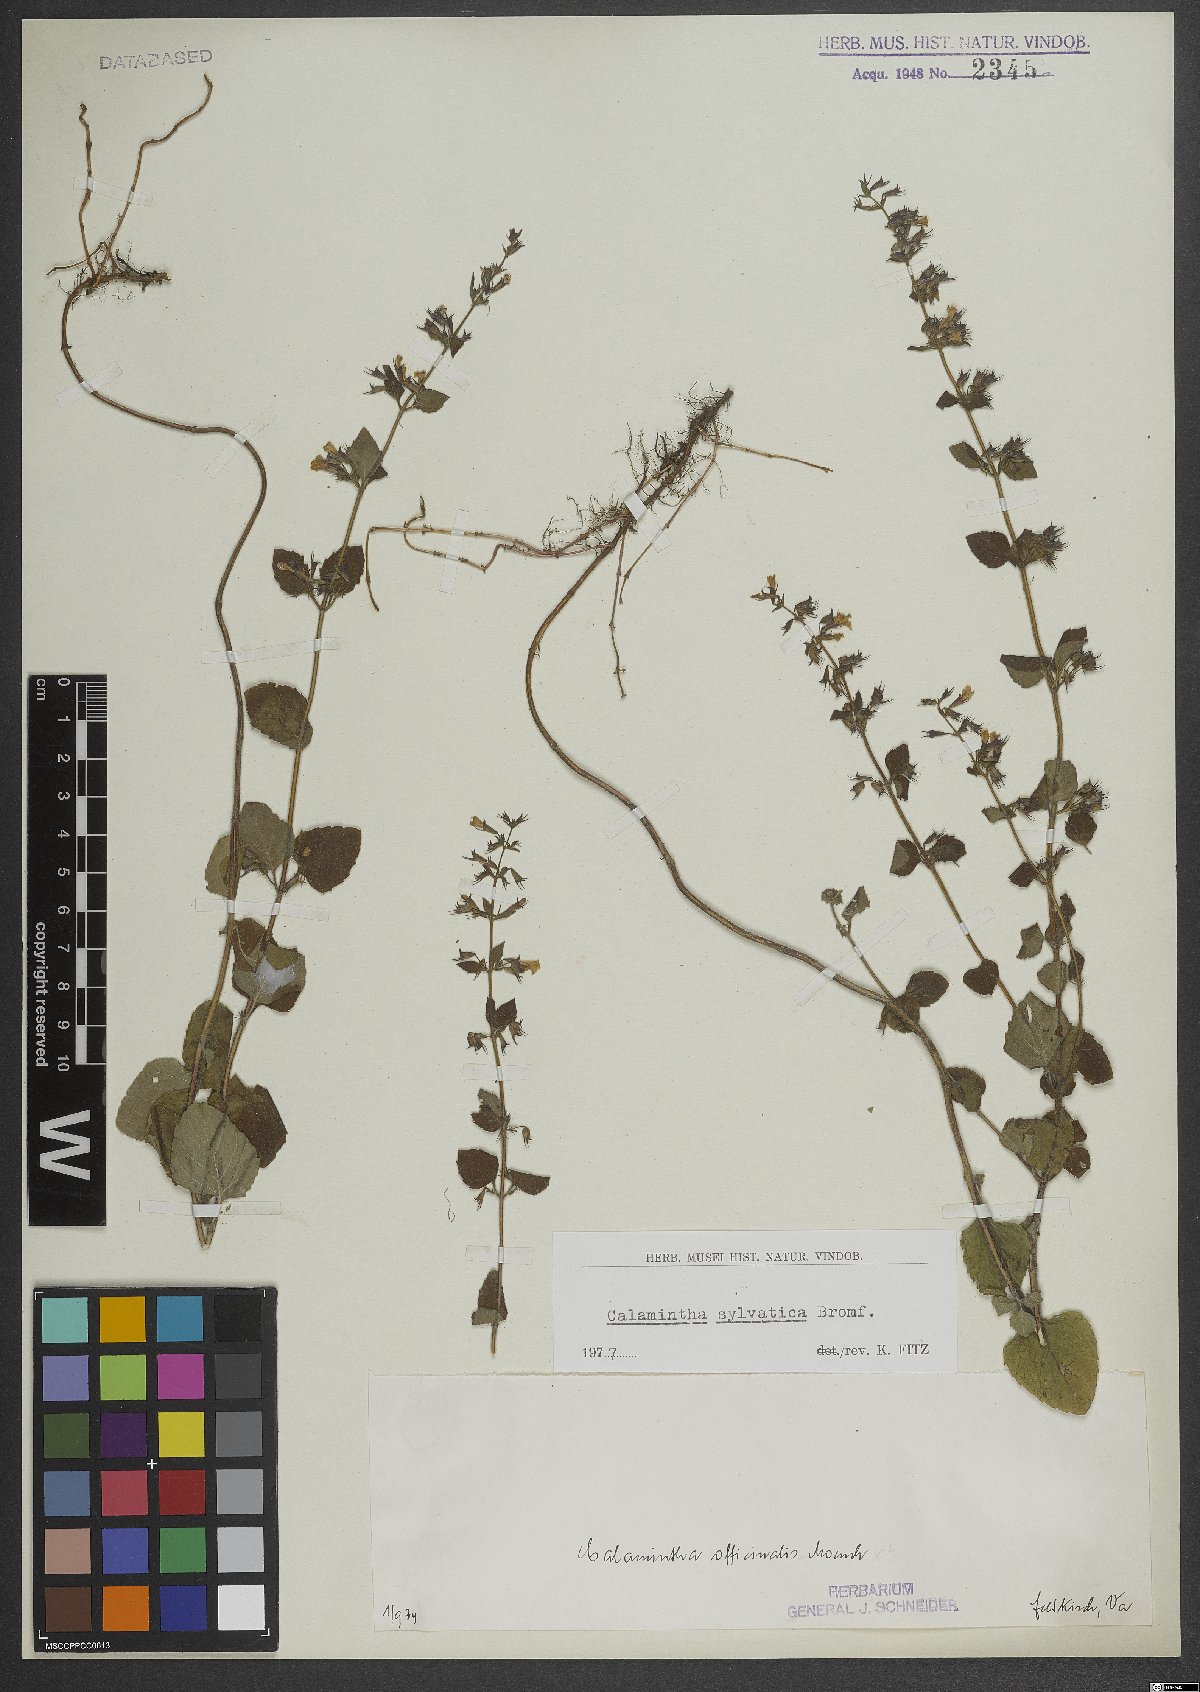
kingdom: Plantae
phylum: Tracheophyta
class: Magnoliopsida
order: Lamiales
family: Lamiaceae
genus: Clinopodium
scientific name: Clinopodium menthifolium
